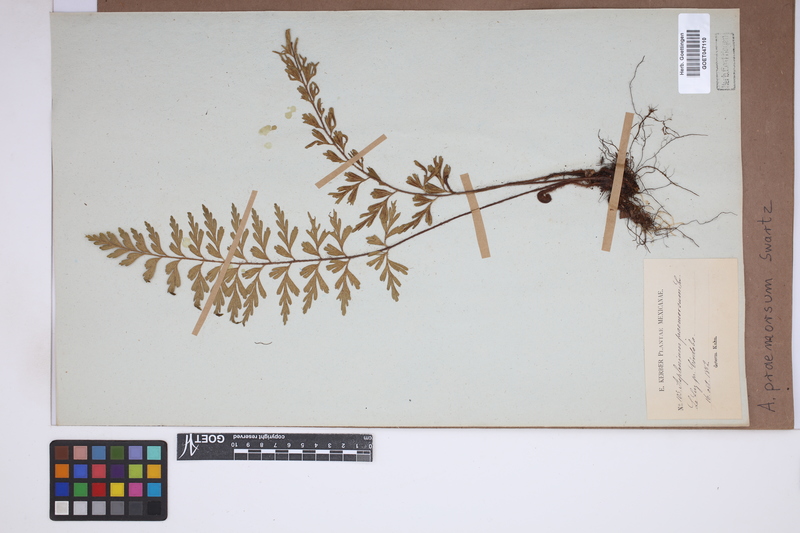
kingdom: Plantae
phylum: Tracheophyta
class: Polypodiopsida
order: Polypodiales
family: Aspleniaceae
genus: Asplenium
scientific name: Asplenium praemorsum
